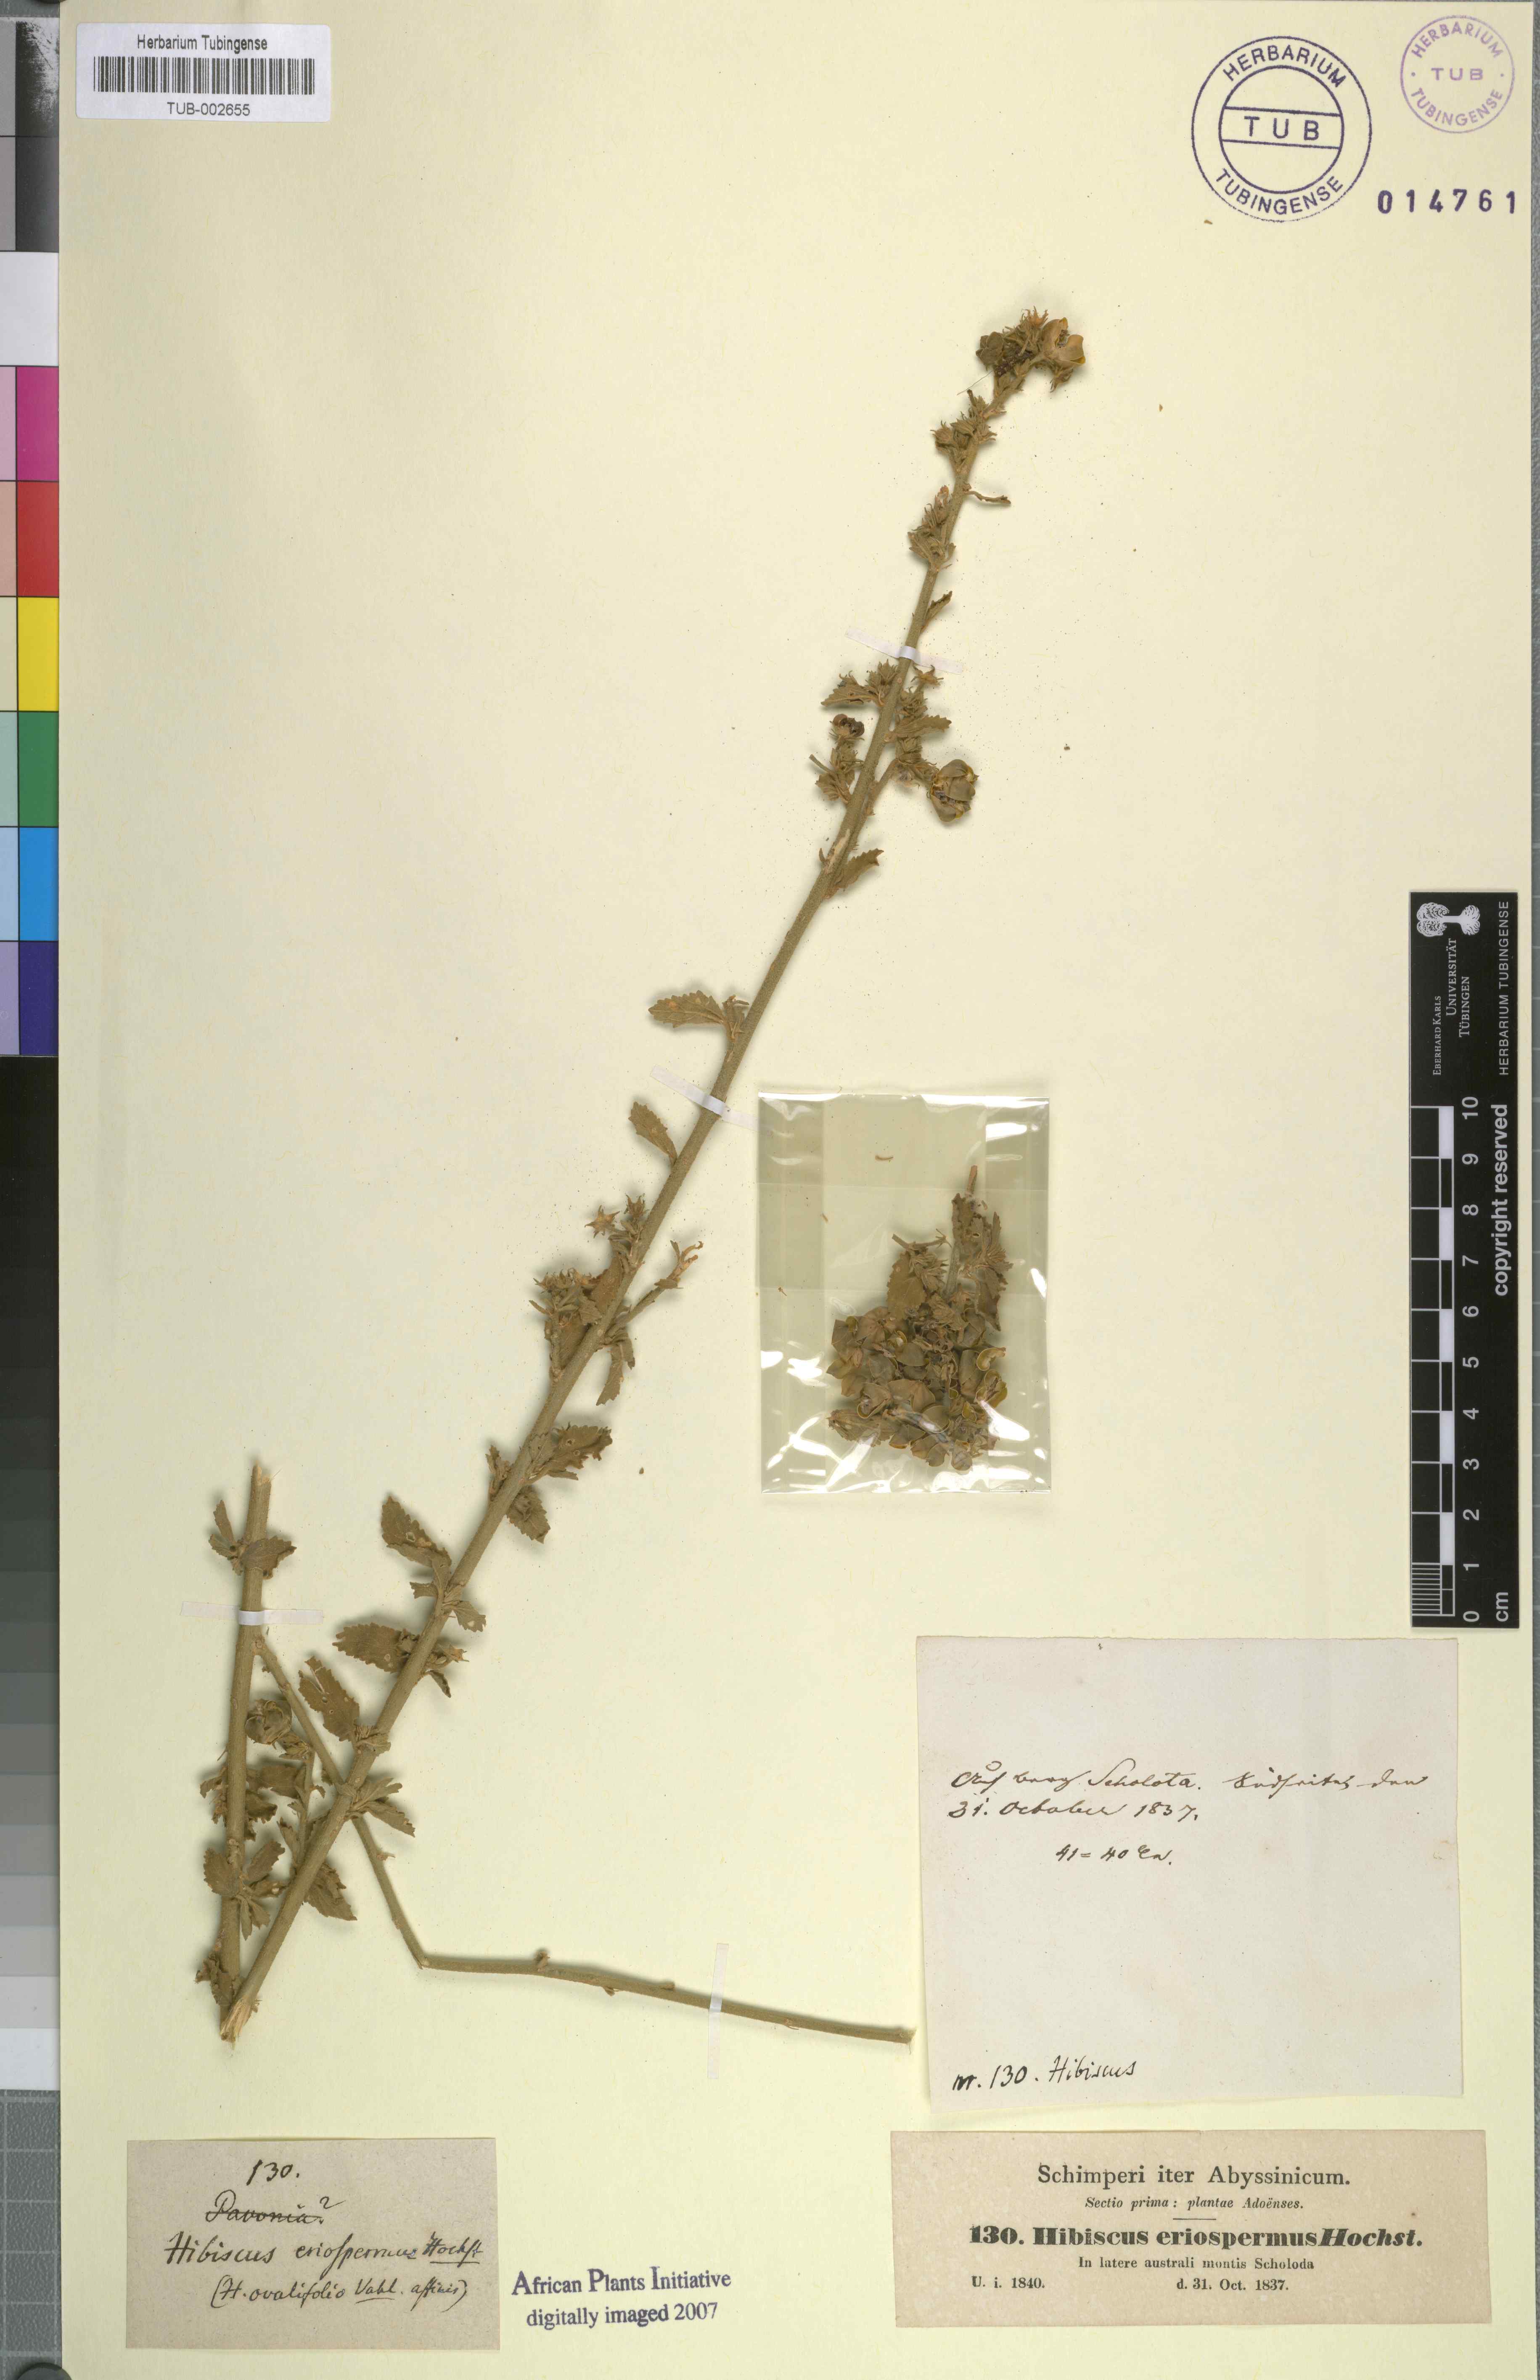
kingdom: Plantae
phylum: Tracheophyta
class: Magnoliopsida
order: Malvales
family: Malvaceae
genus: Hibiscus
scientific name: Hibiscus crassinervius
